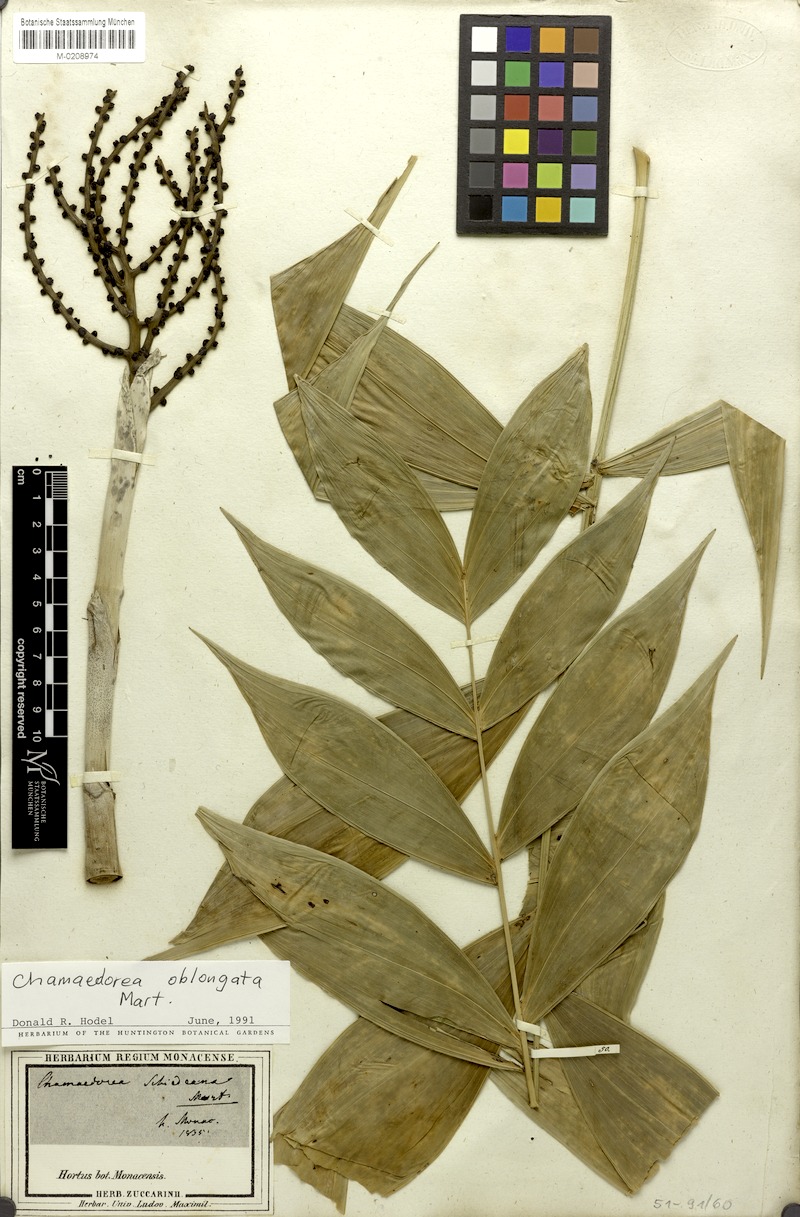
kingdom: Plantae
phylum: Tracheophyta
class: Liliopsida
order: Arecales
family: Arecaceae
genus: Chamaedorea
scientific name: Chamaedorea oblongata
